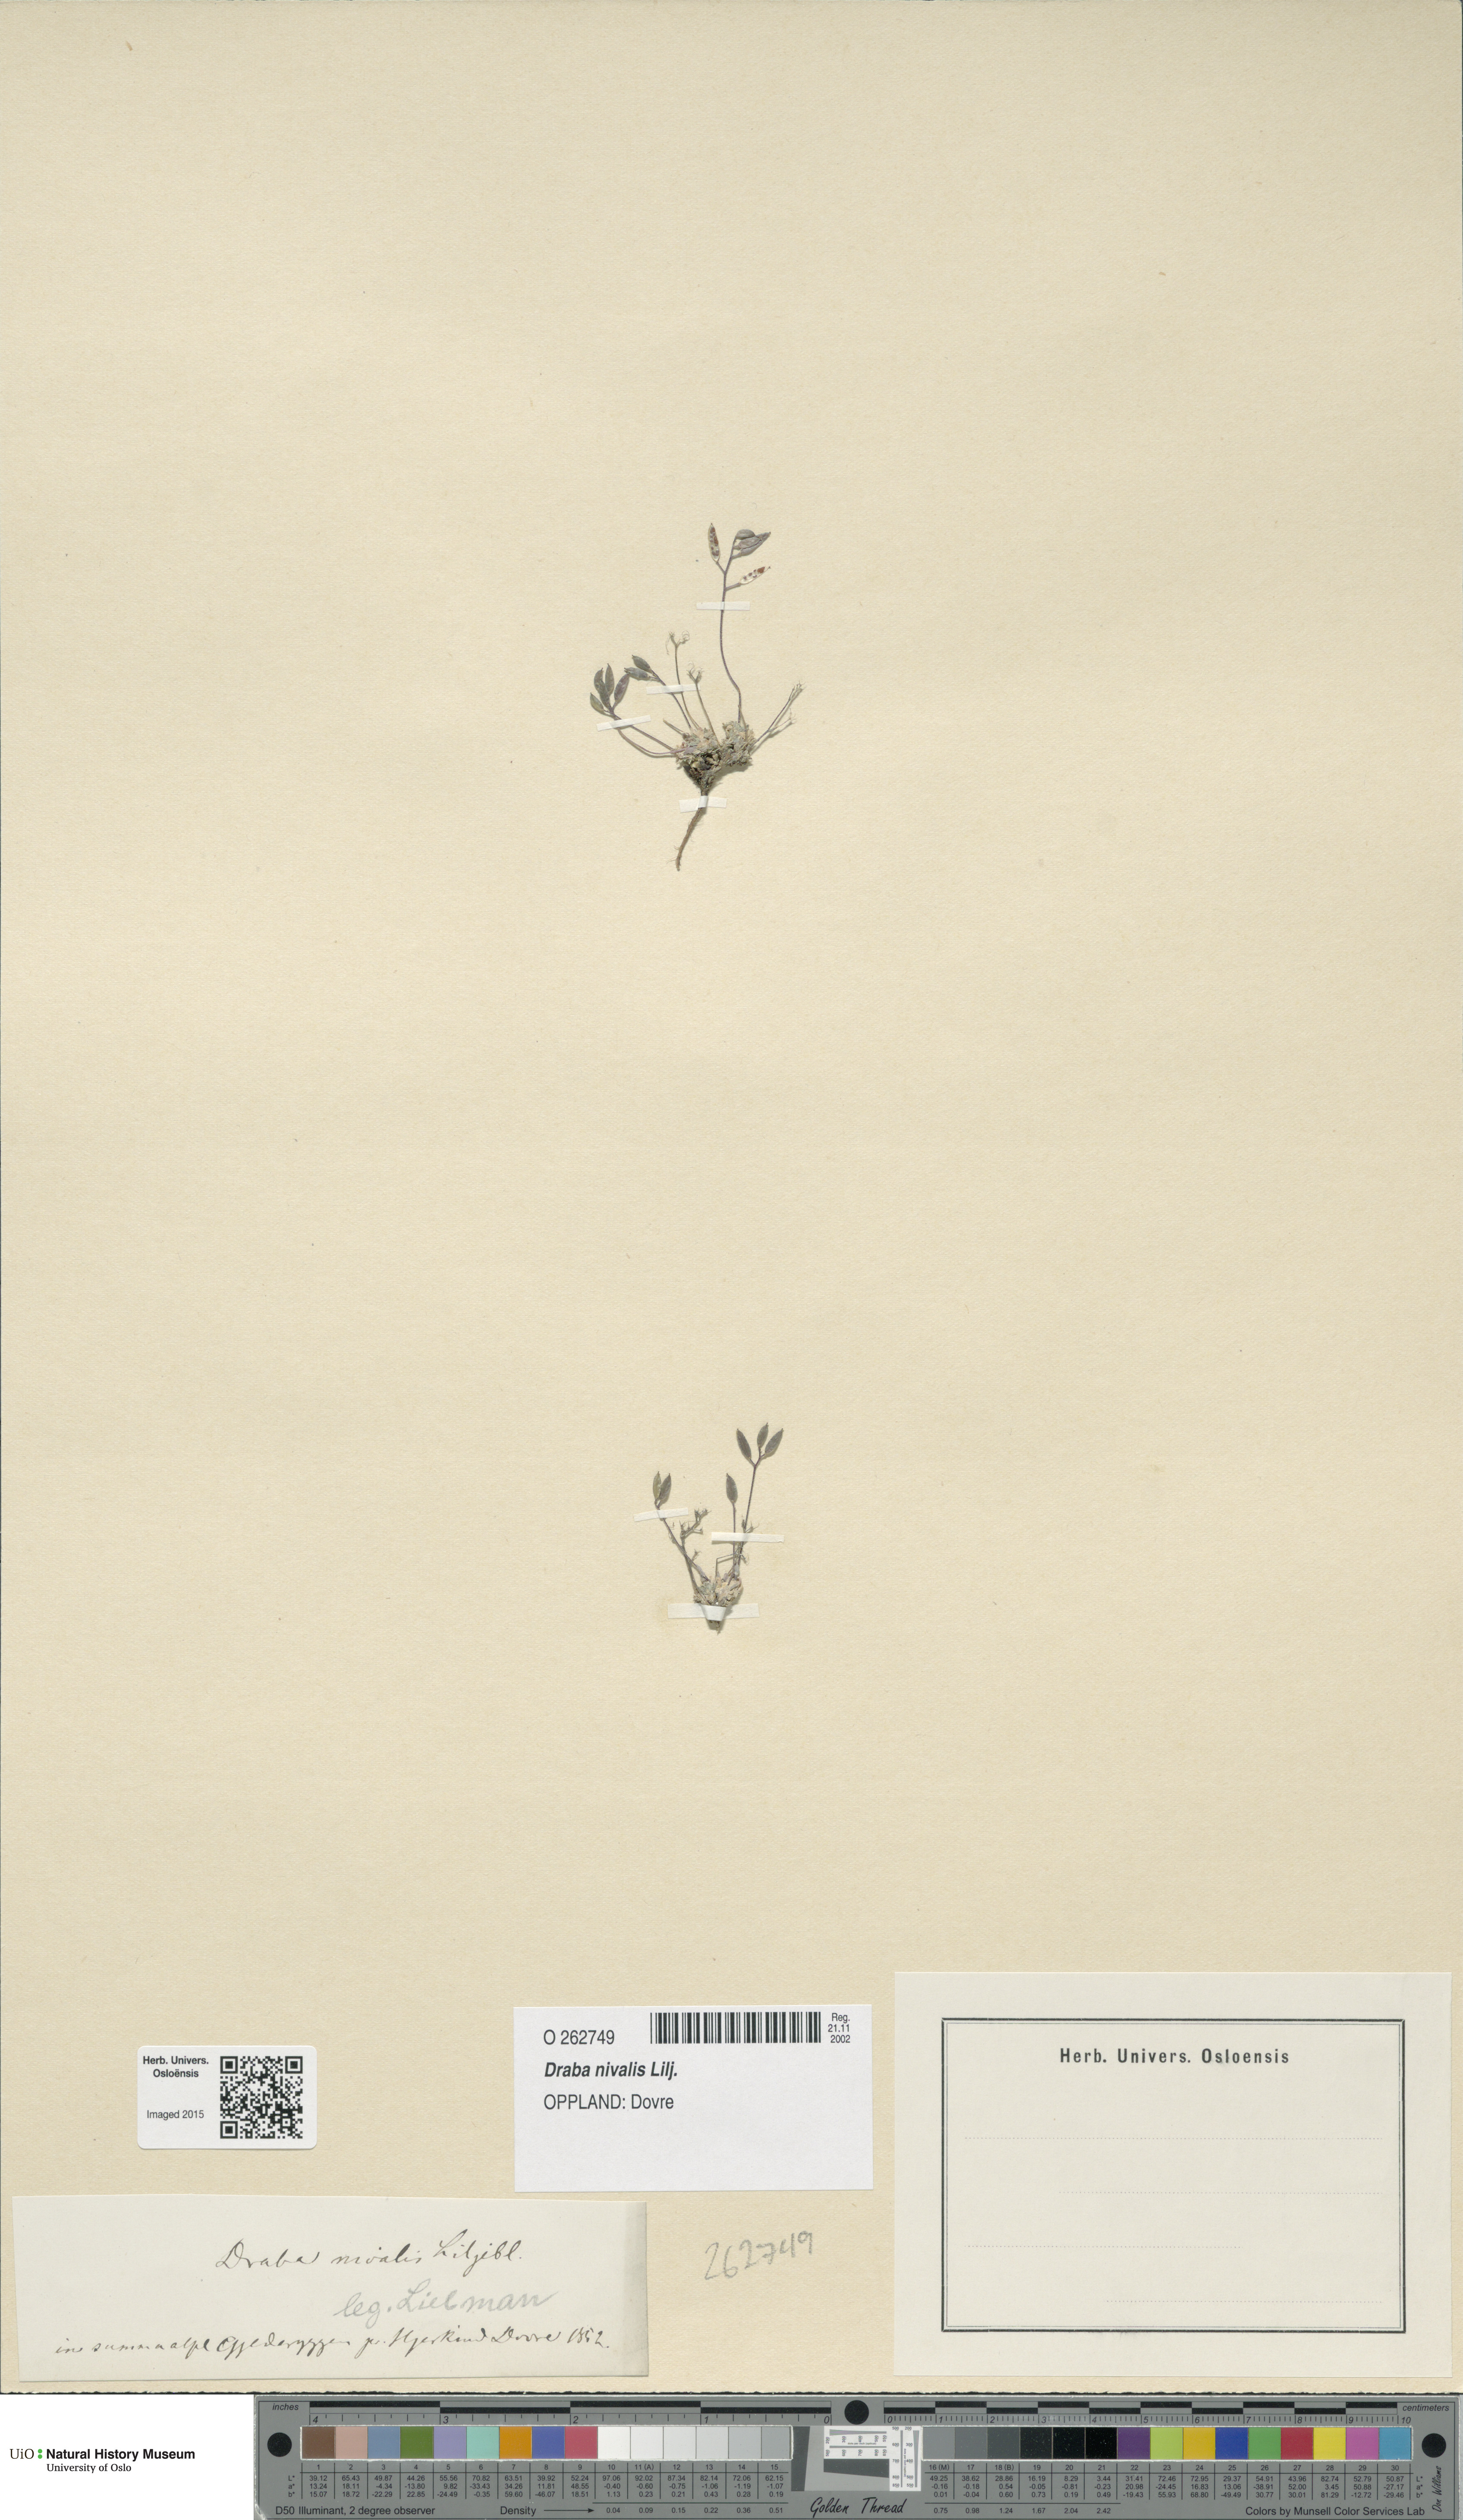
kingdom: Plantae
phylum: Tracheophyta
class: Magnoliopsida
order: Brassicales
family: Brassicaceae
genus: Draba
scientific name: Draba nivalis
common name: Snow draba
